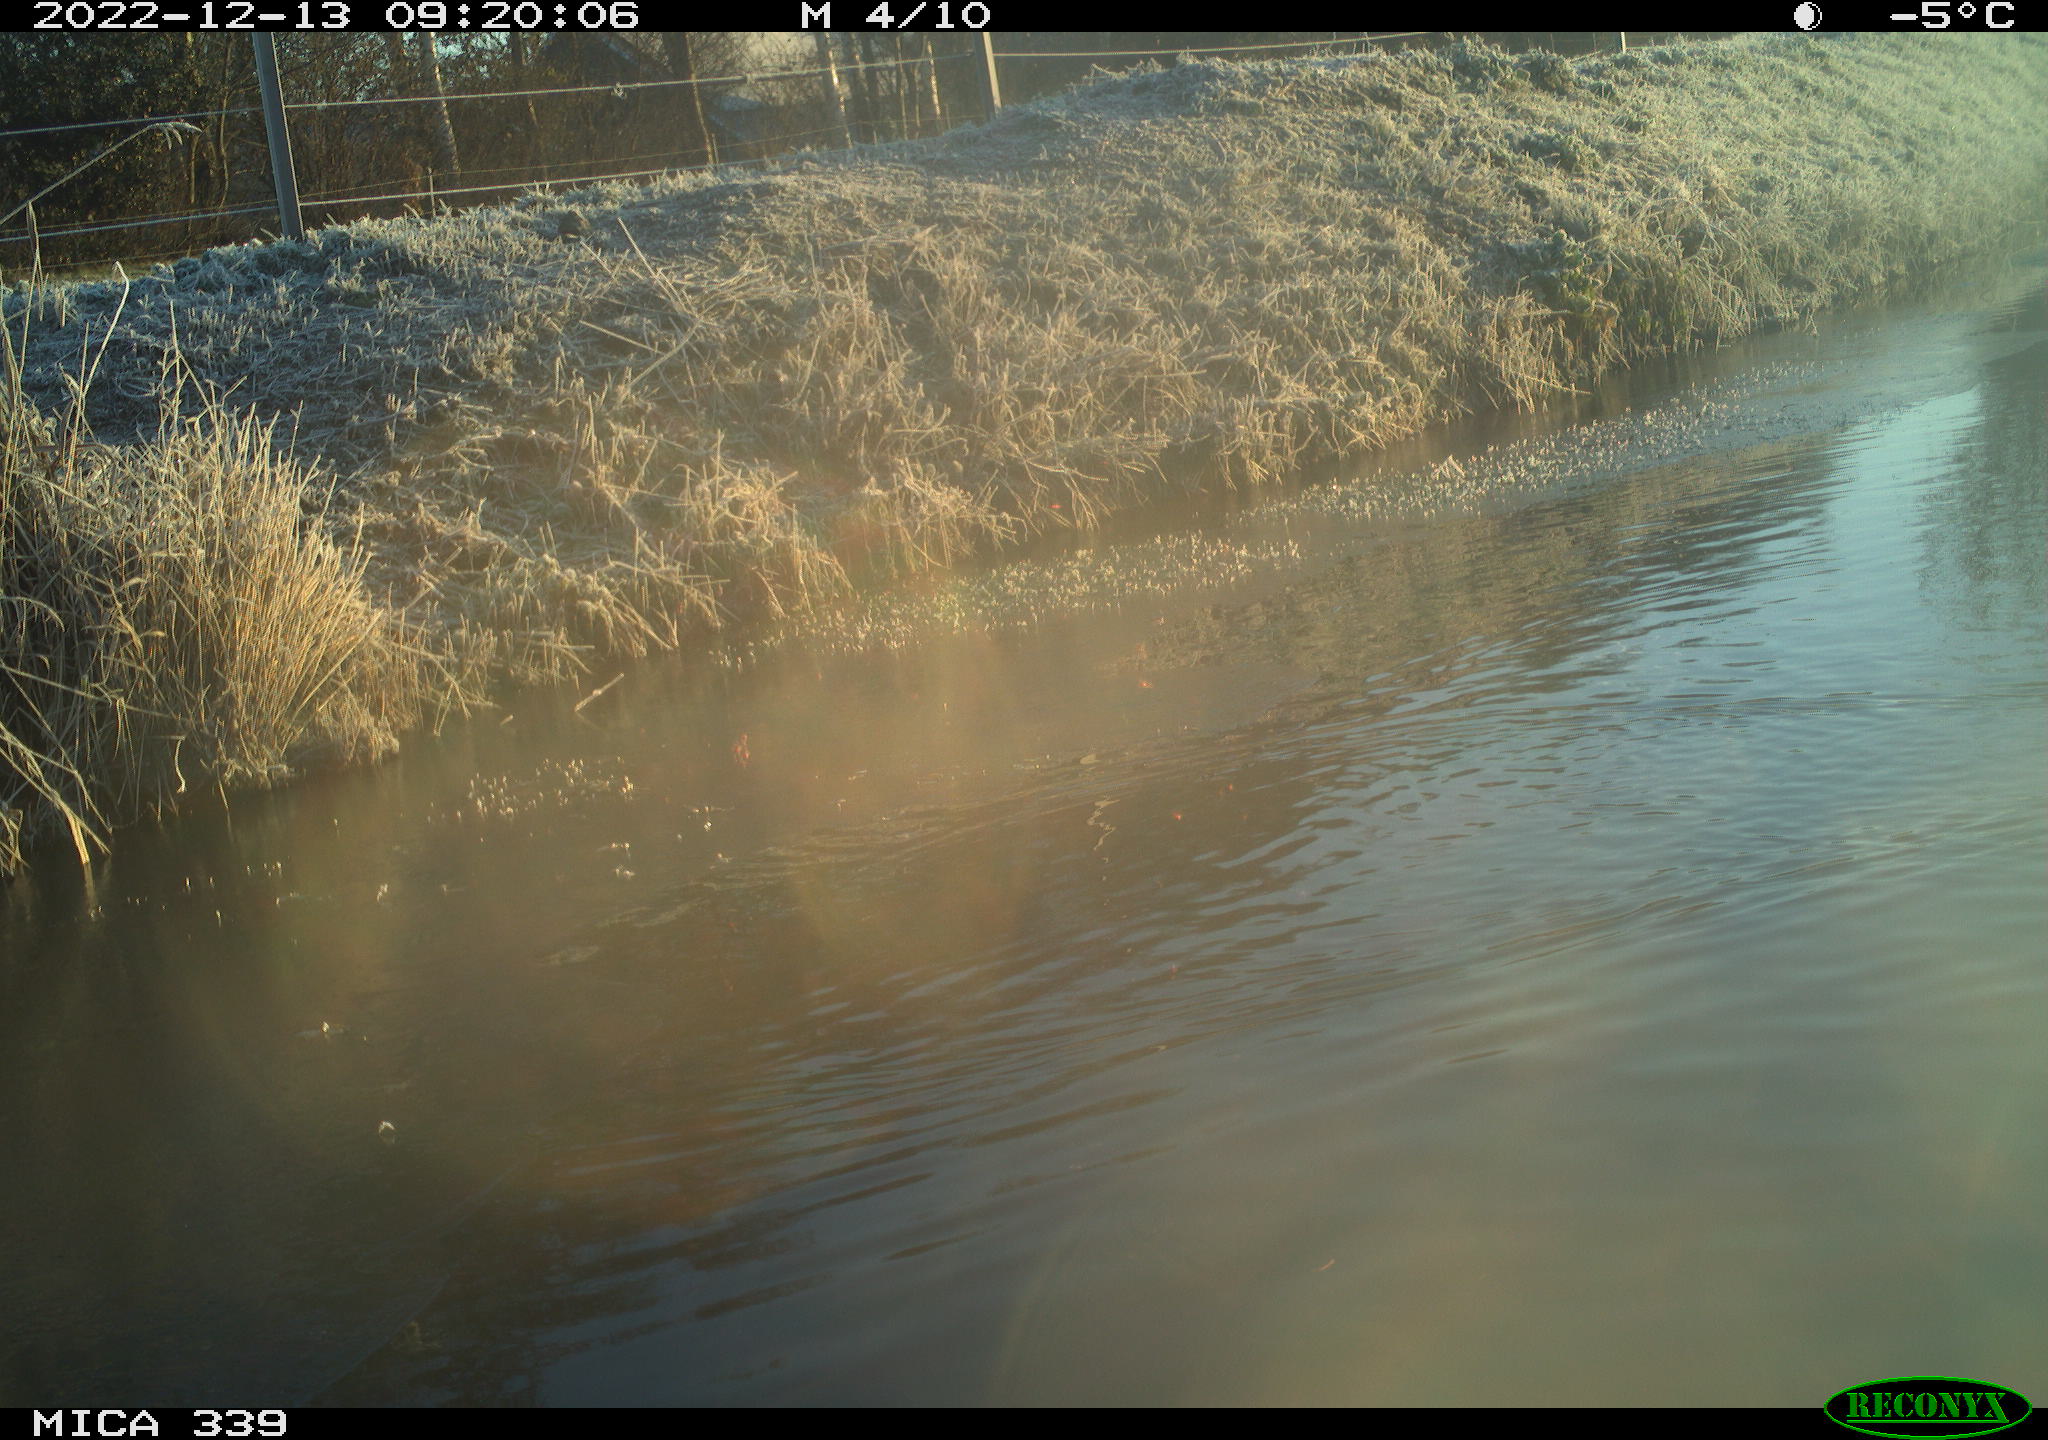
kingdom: Animalia
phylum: Chordata
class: Aves
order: Anseriformes
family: Anatidae
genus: Anas
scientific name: Anas
